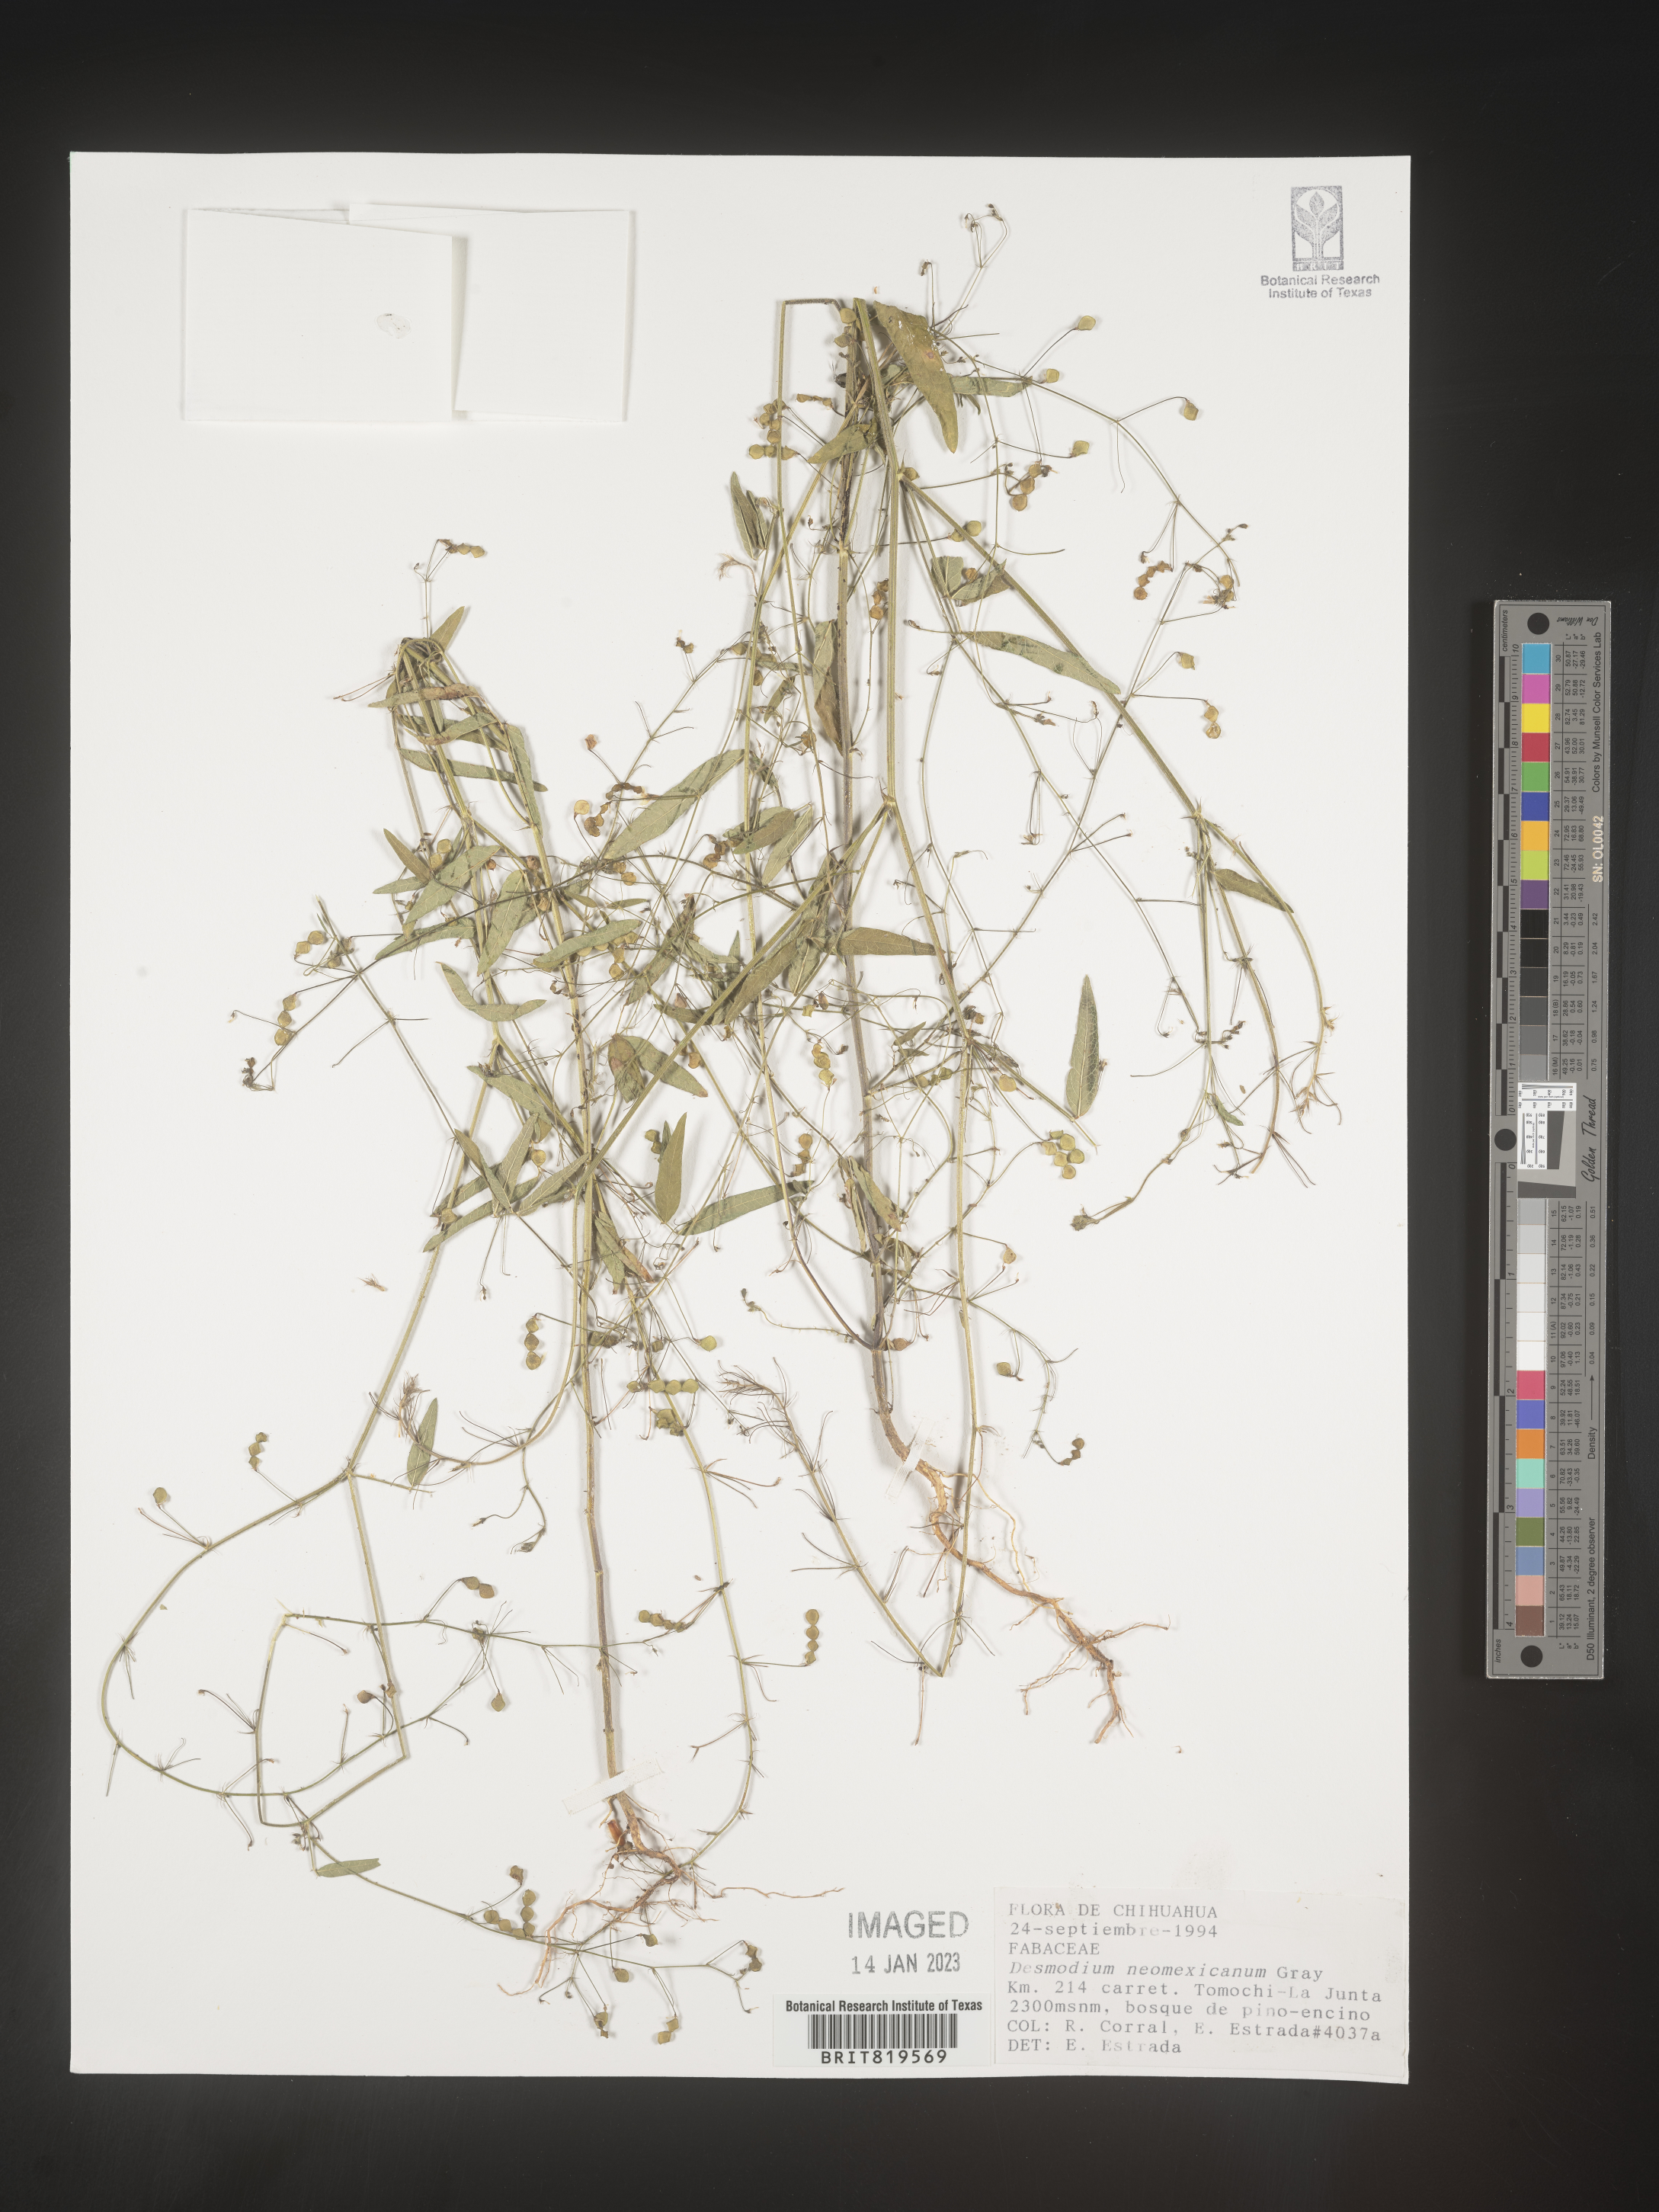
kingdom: Plantae
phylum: Tracheophyta
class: Magnoliopsida
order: Fabales
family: Fabaceae
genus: Desmodium
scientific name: Desmodium
